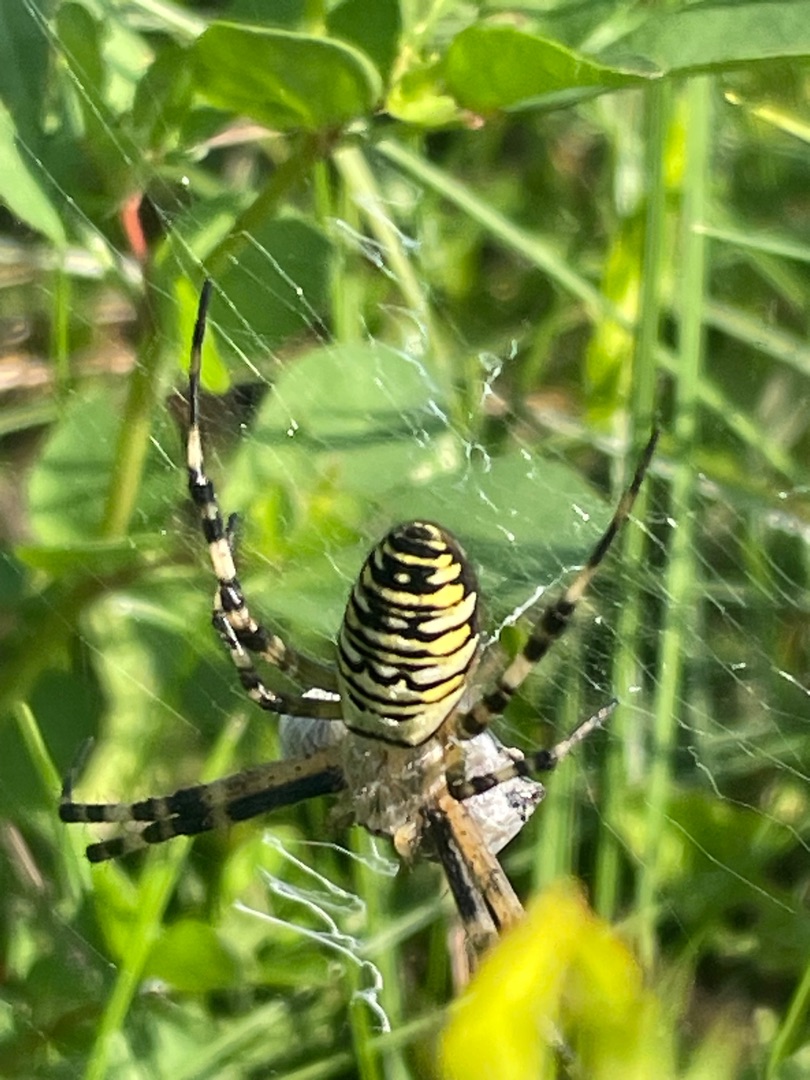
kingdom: Animalia
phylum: Arthropoda
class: Arachnida
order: Araneae
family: Araneidae
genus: Argiope
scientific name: Argiope bruennichi
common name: Hvepseedderkop
